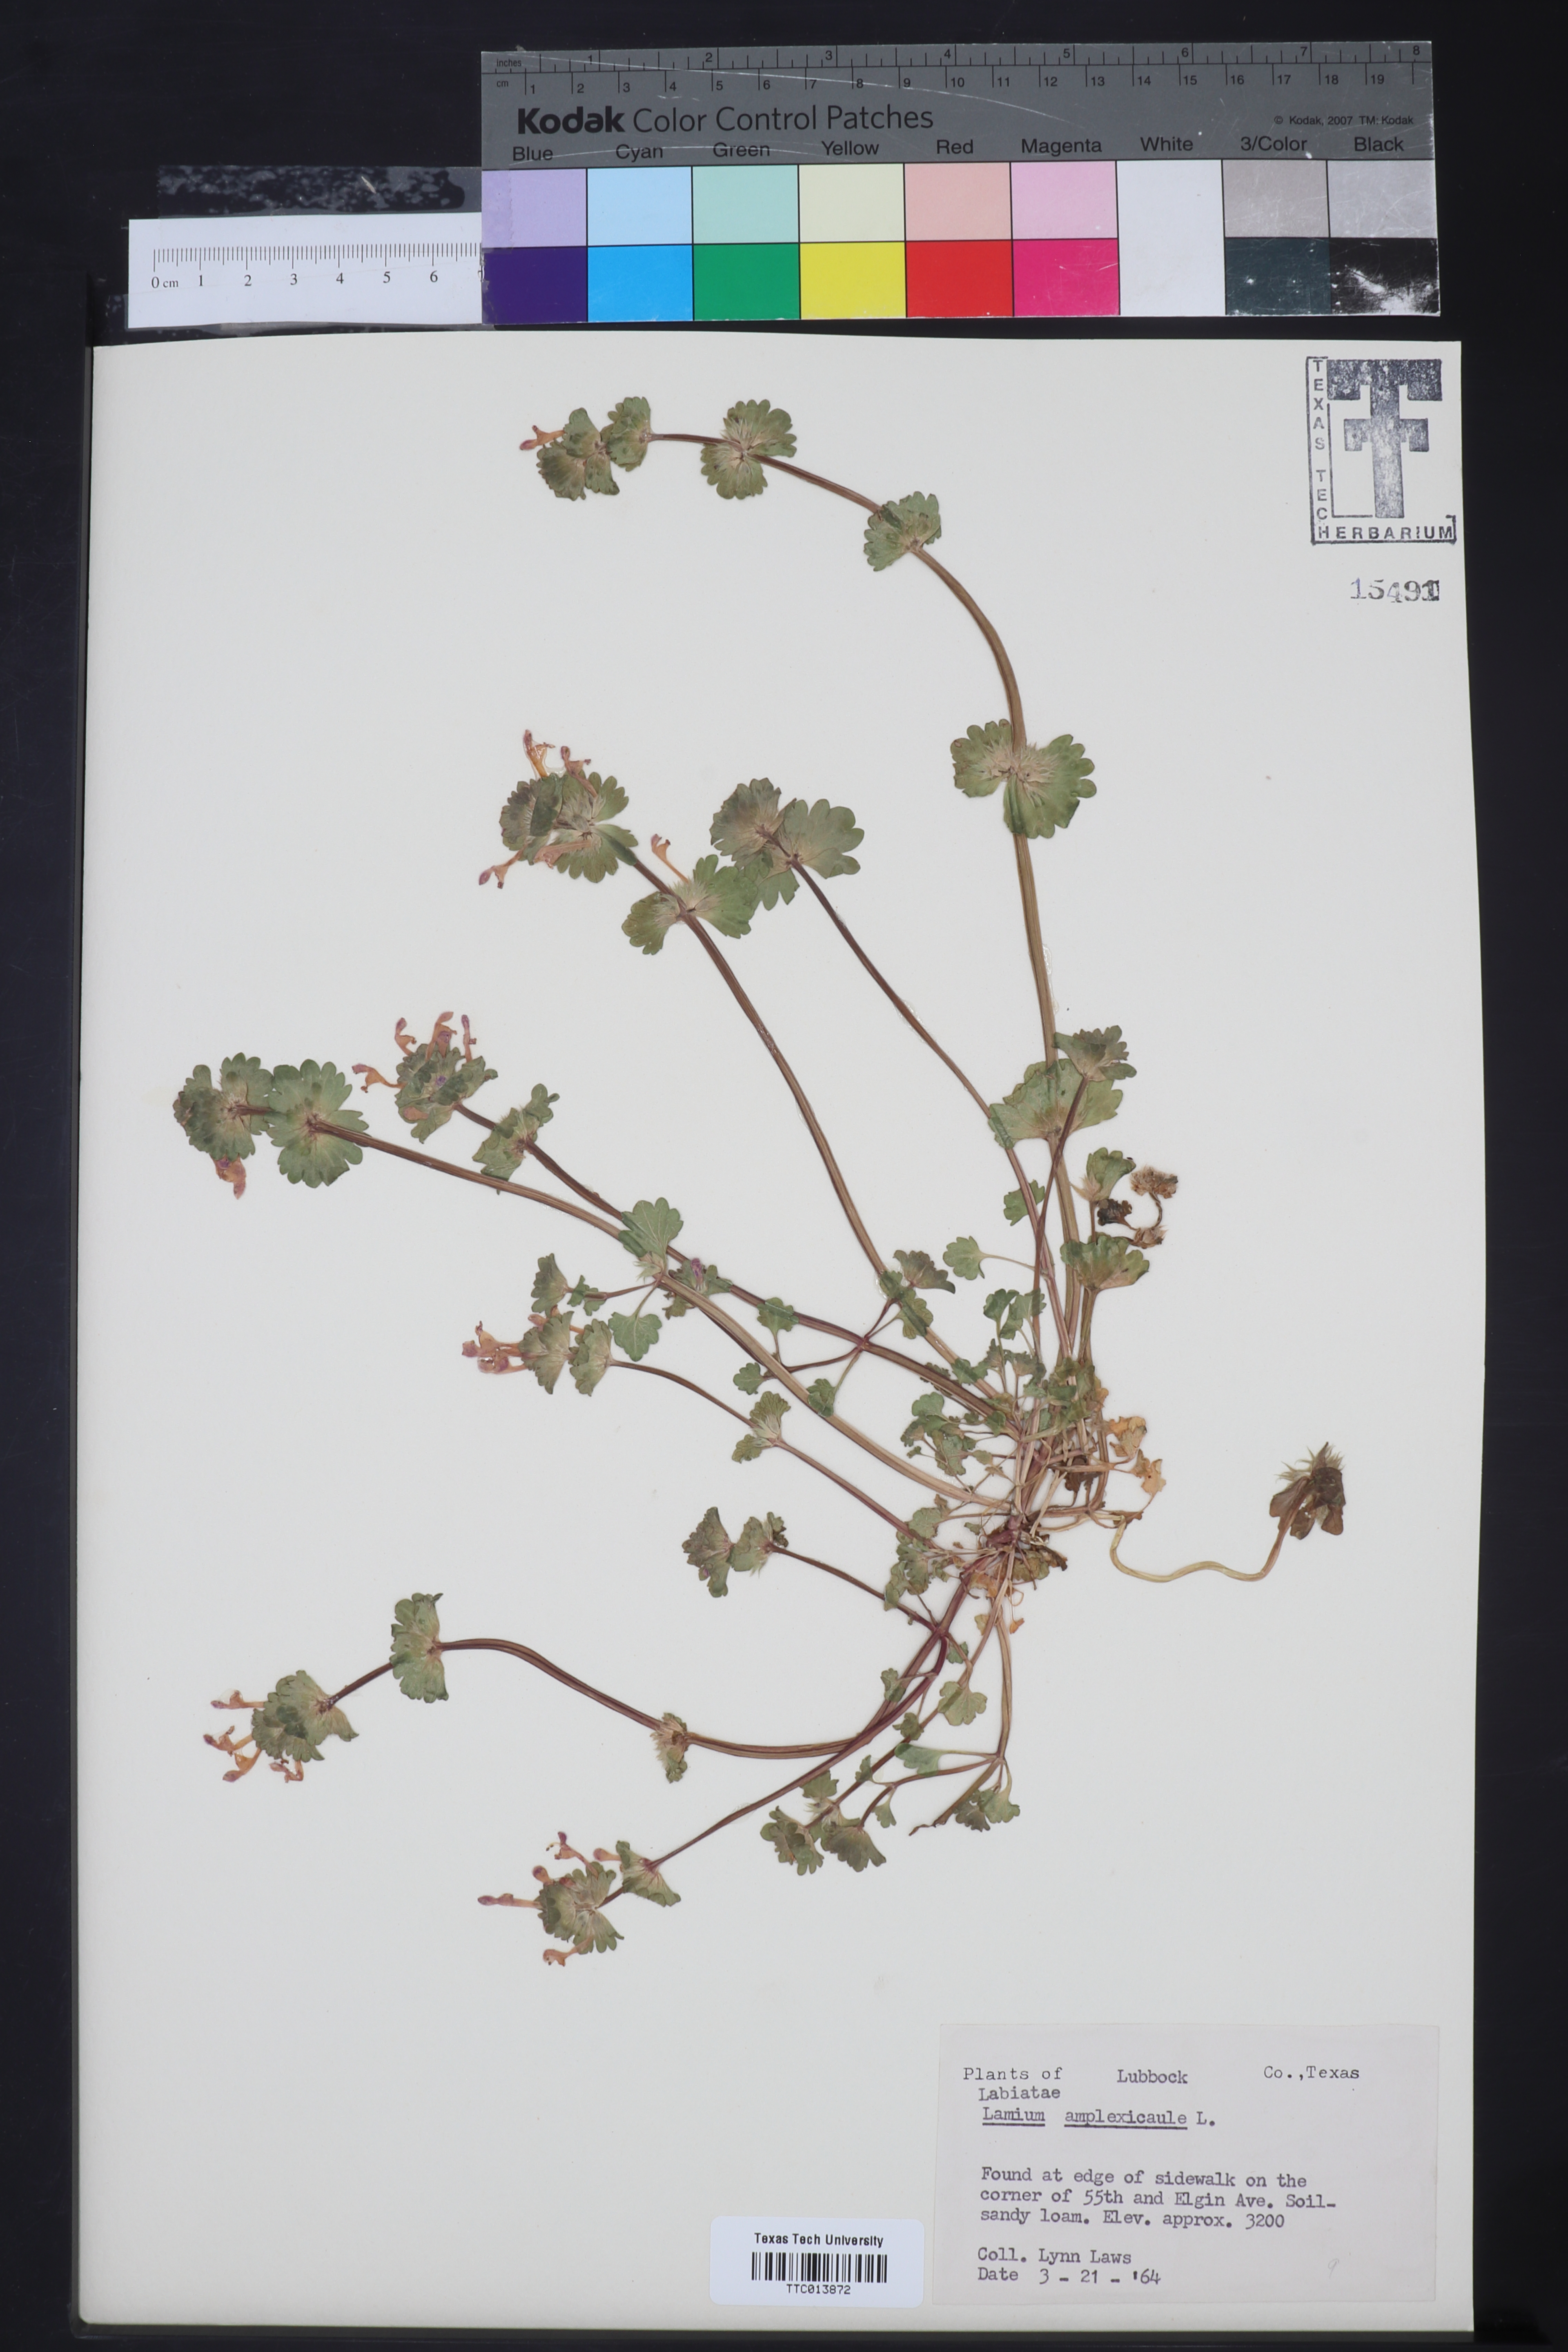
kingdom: Plantae
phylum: Tracheophyta
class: Magnoliopsida
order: Lamiales
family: Lamiaceae
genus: Lamium
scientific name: Lamium amplexicaule
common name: Henbit dead-nettle
